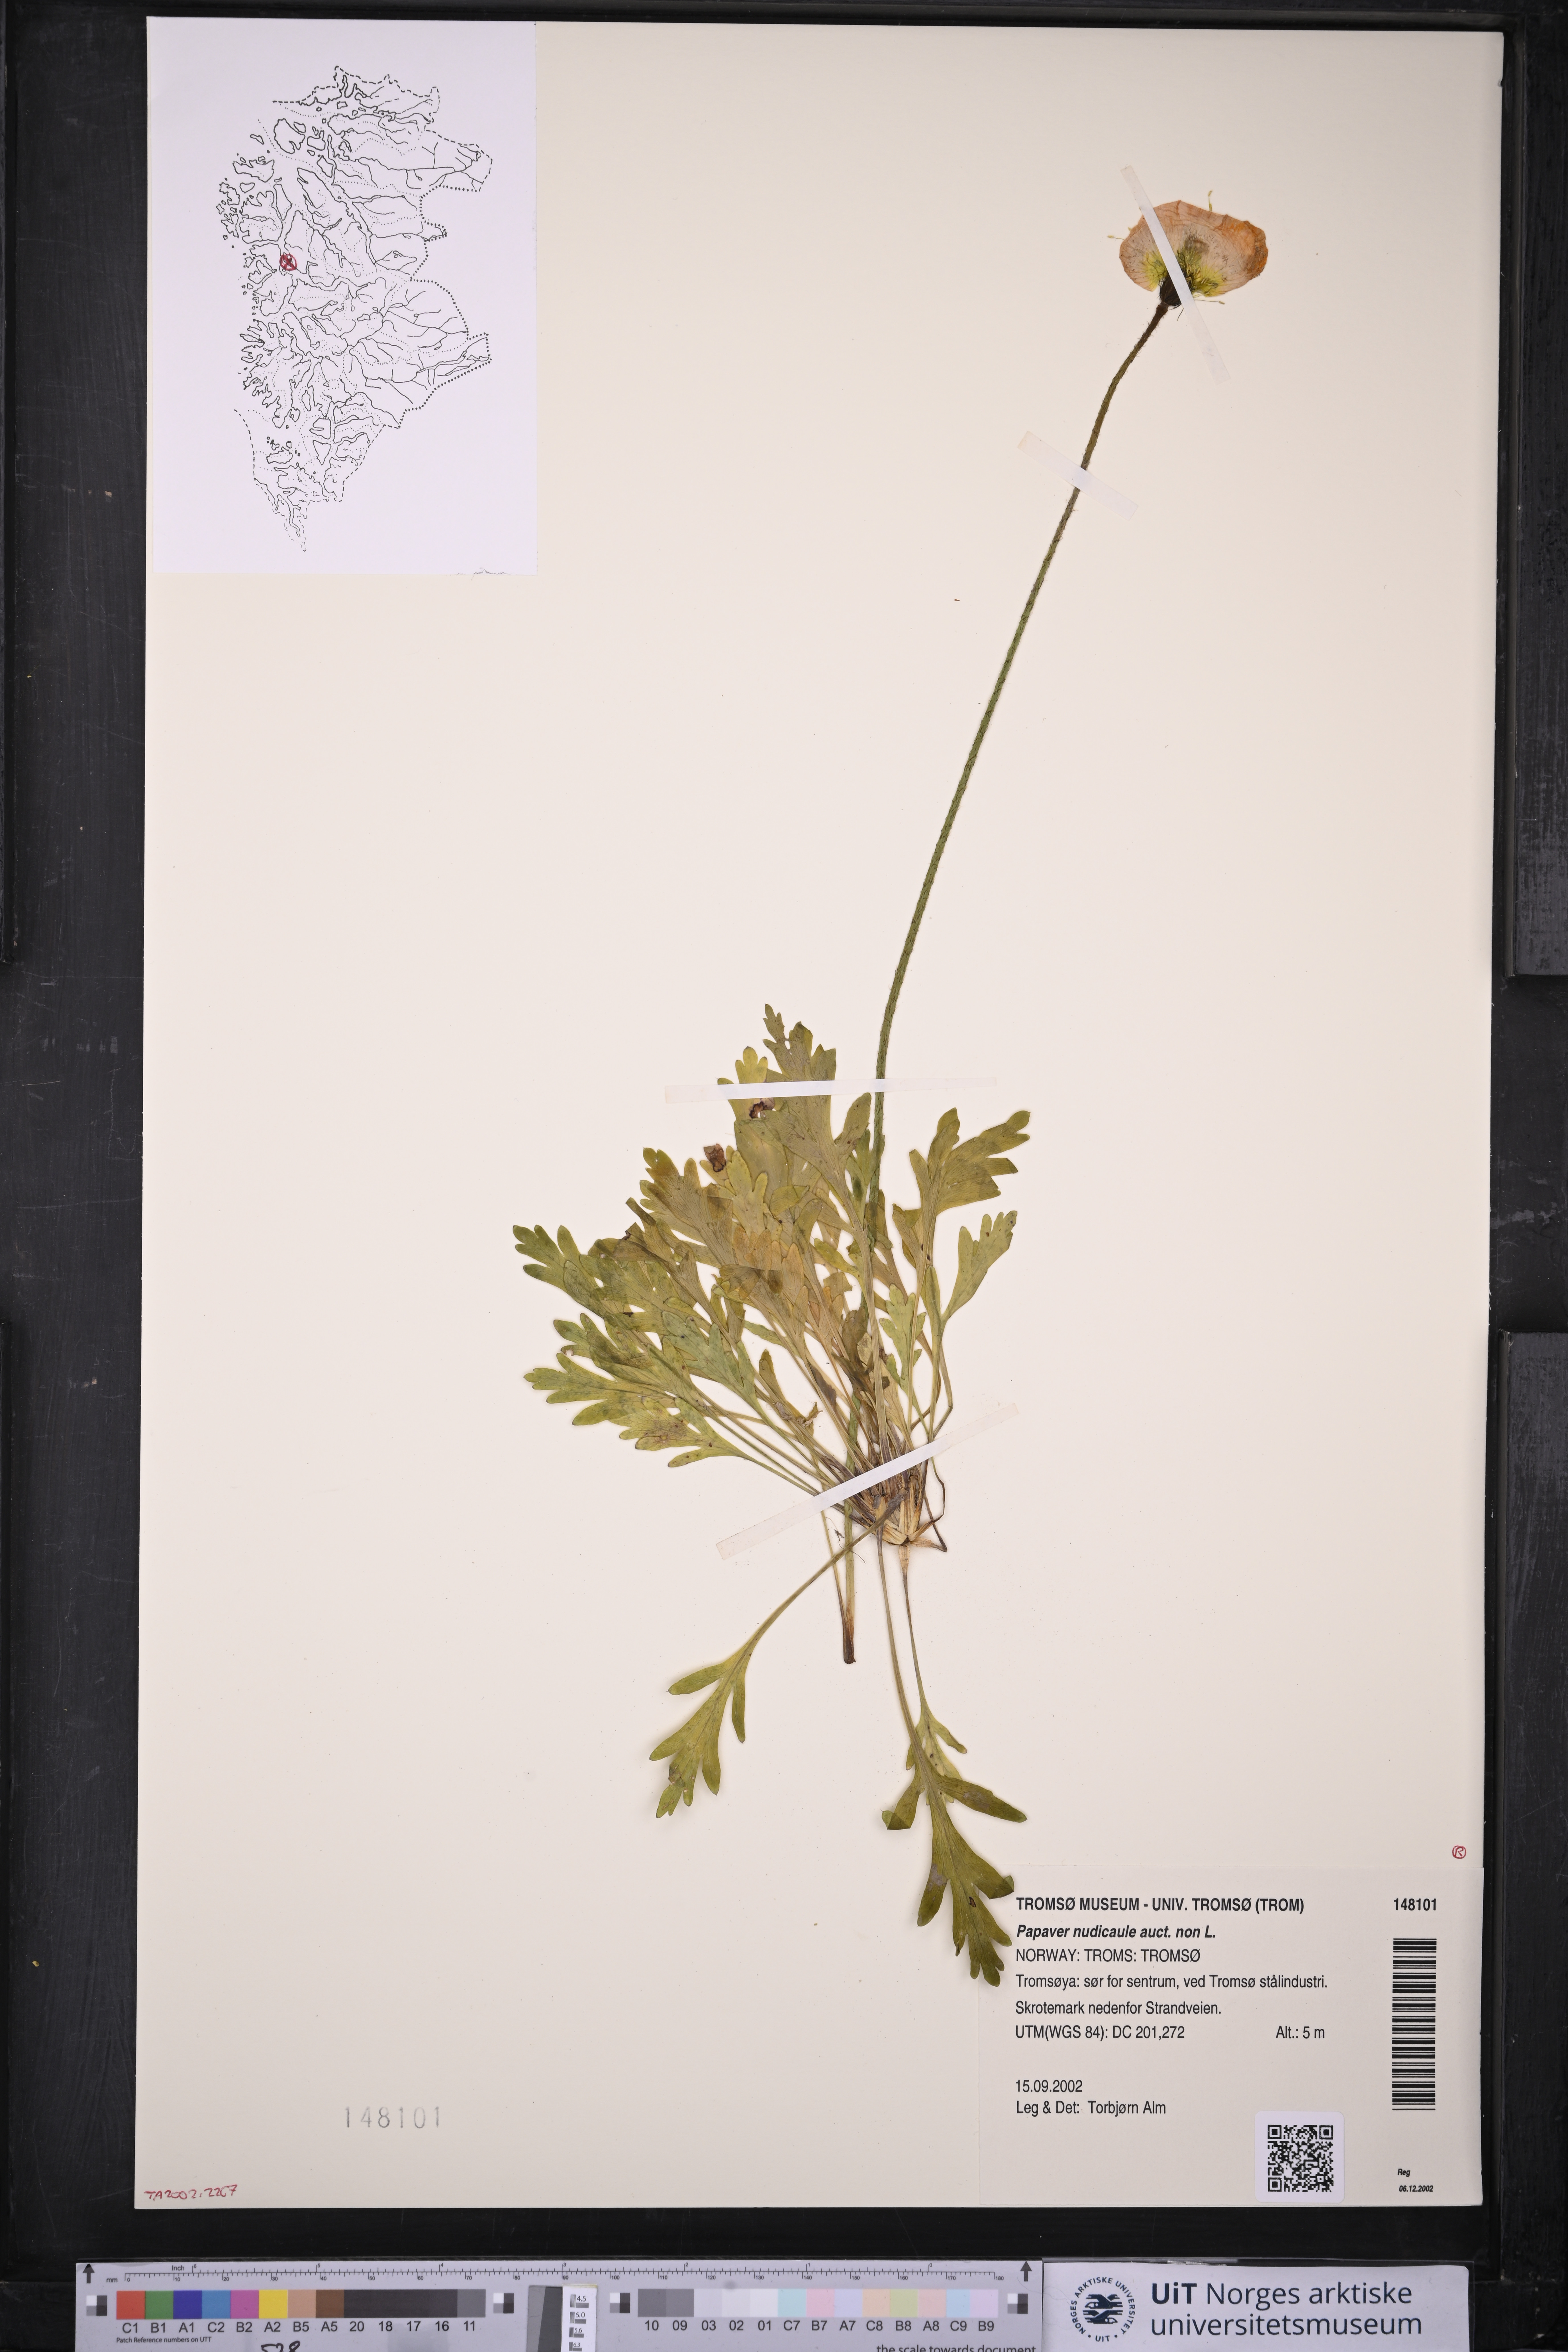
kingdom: Plantae
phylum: Tracheophyta
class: Magnoliopsida
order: Ranunculales
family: Papaveraceae
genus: Papaver
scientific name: Papaver croceum
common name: Siberian poppy
